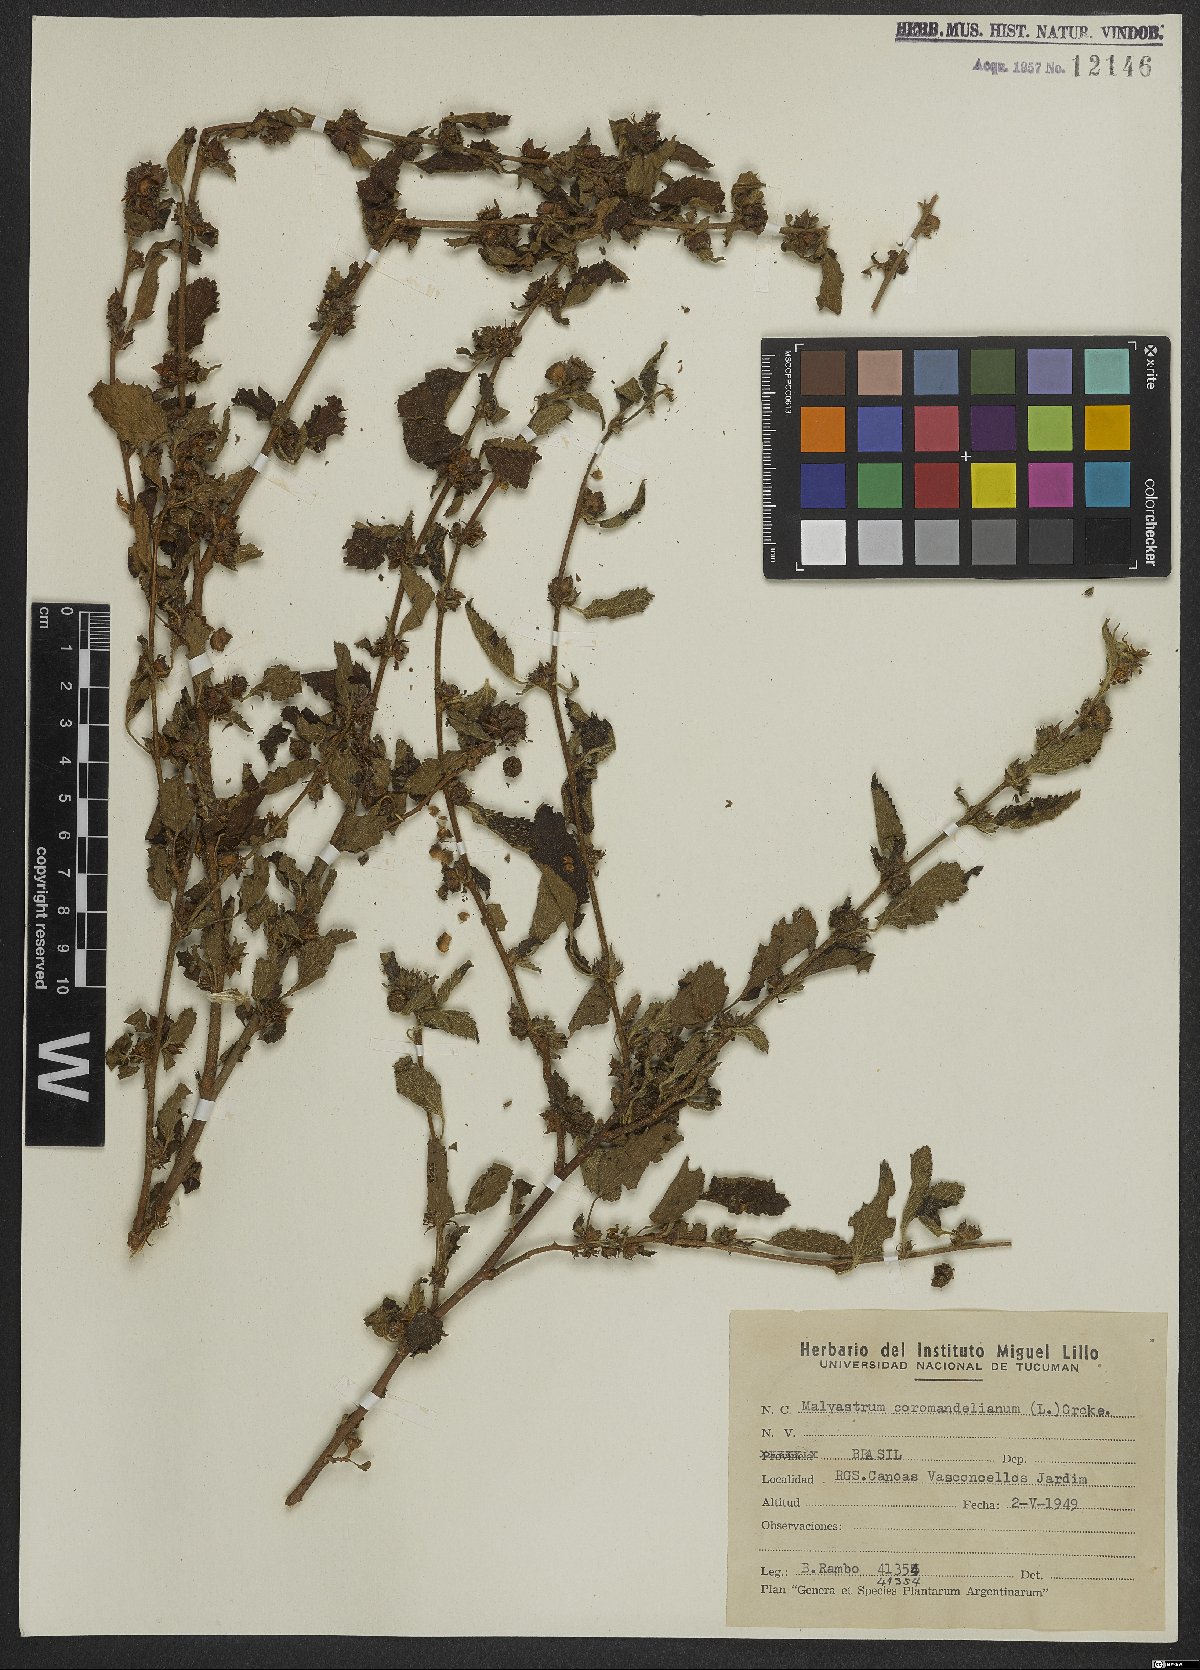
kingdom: Plantae
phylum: Tracheophyta
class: Magnoliopsida
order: Malvales
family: Malvaceae
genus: Malvastrum
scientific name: Malvastrum coromandelianum
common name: Threelobe false mallow
